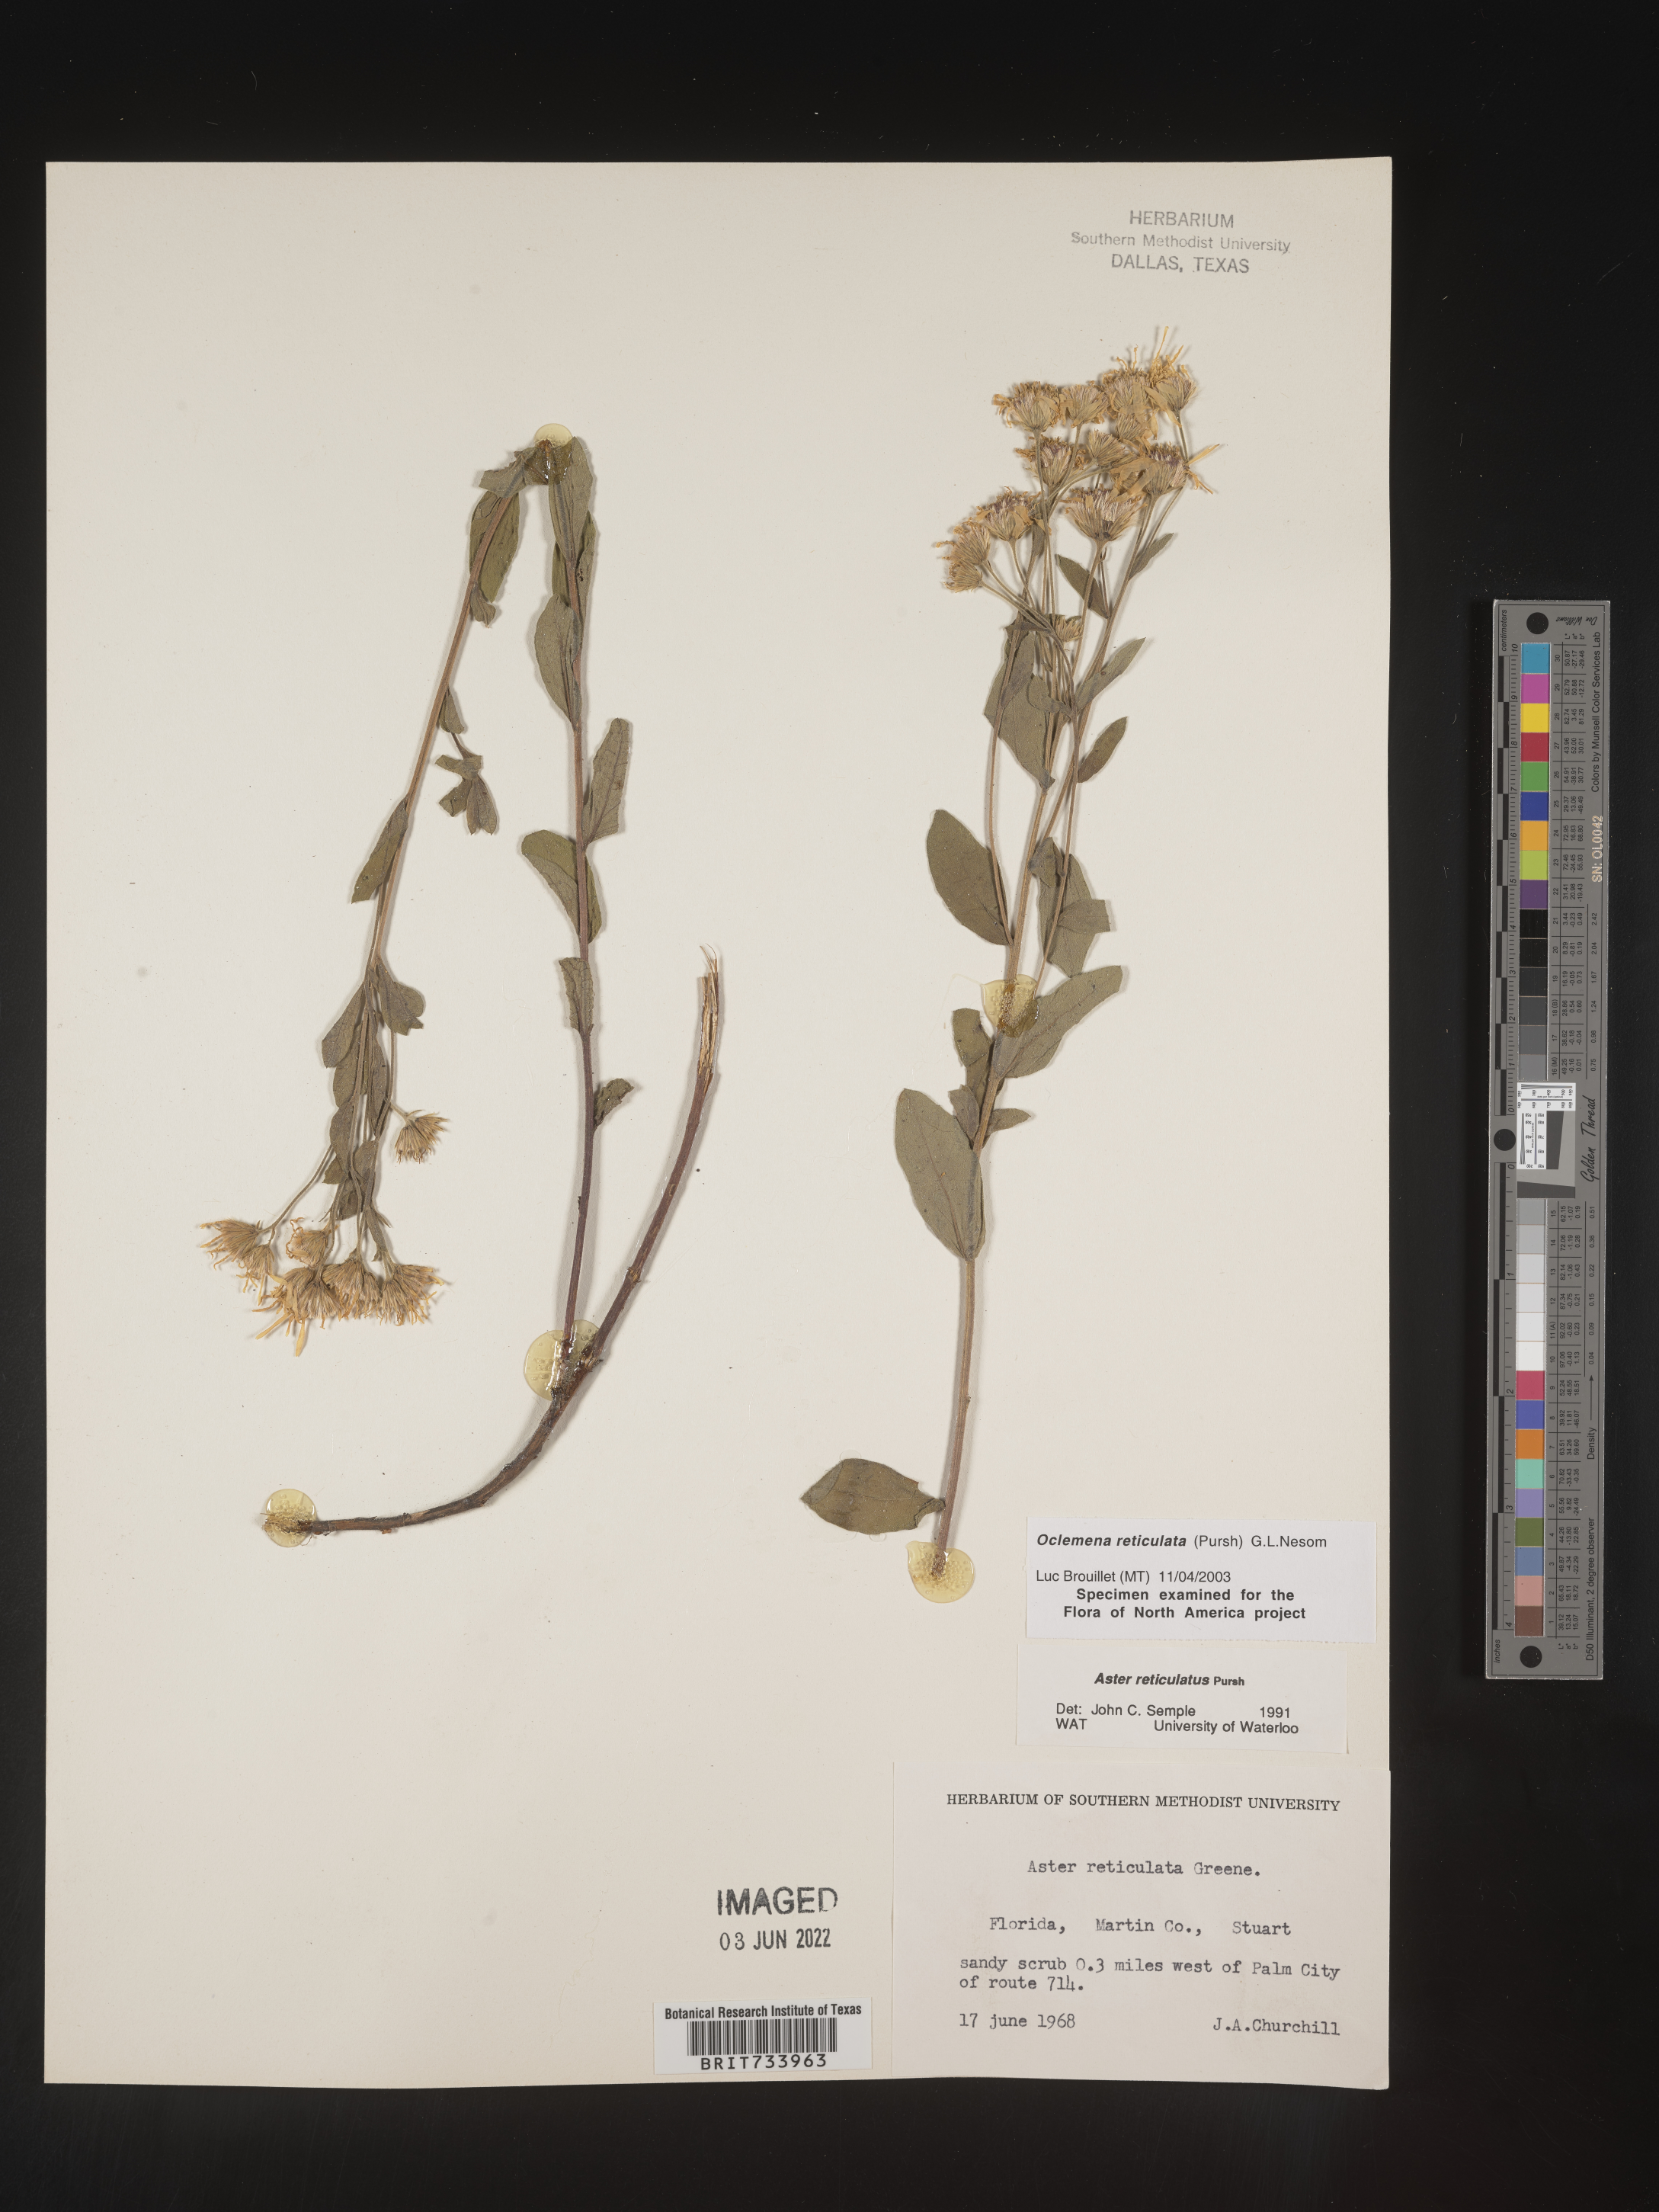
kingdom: Plantae
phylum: Tracheophyta
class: Magnoliopsida
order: Asterales
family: Asteraceae
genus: Oclemena
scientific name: Oclemena reticulata
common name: Pinebarren aster
